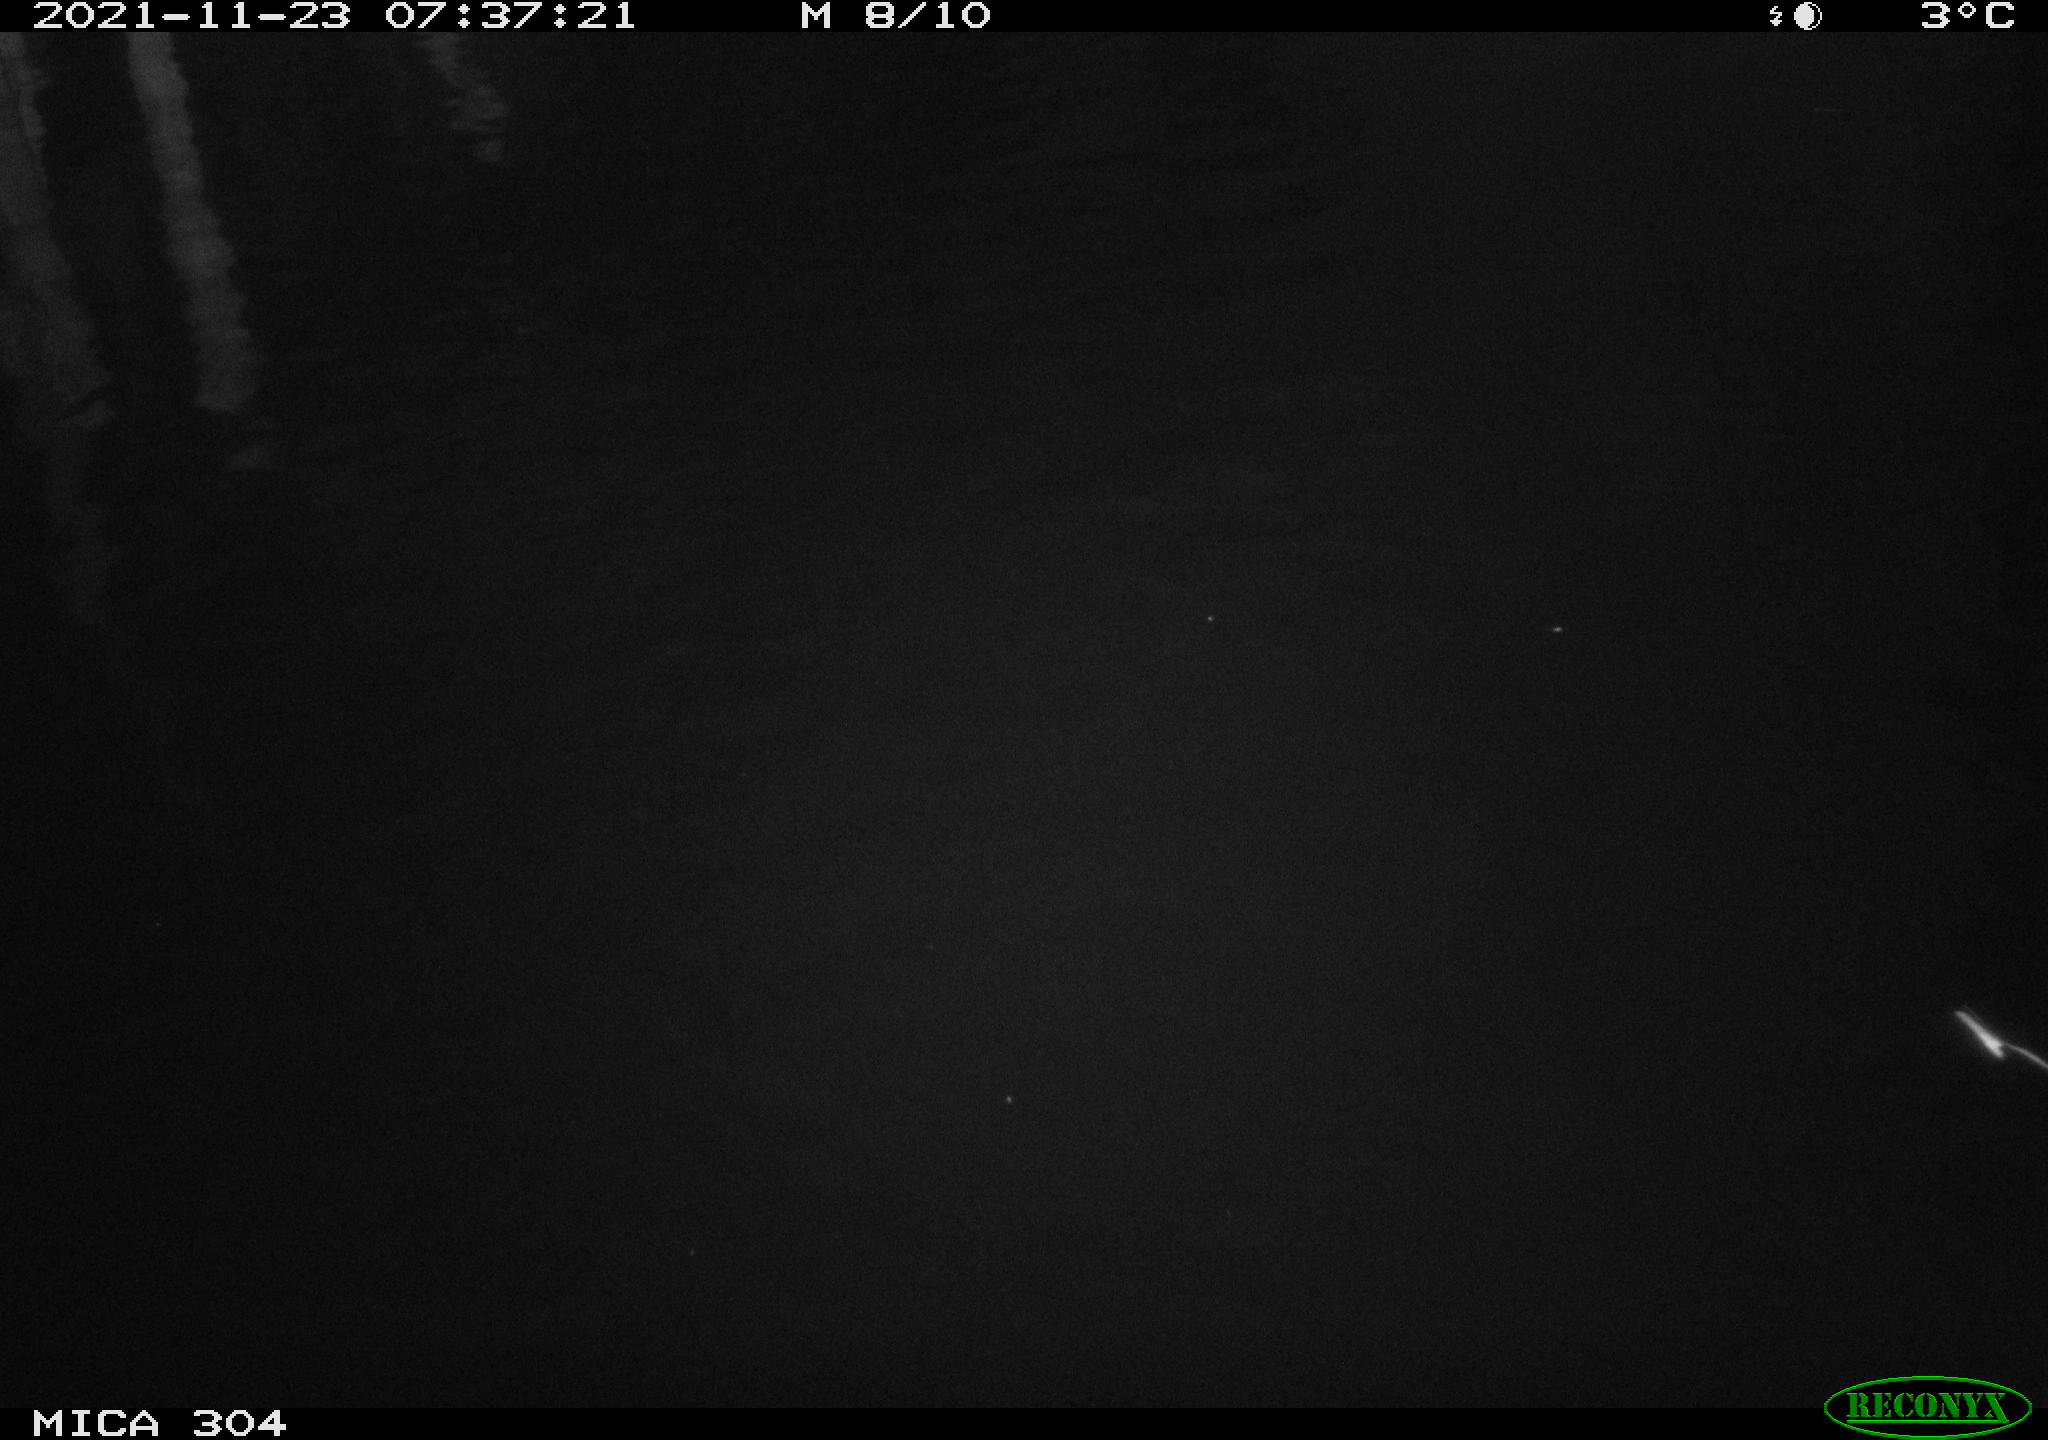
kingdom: Animalia
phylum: Chordata
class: Aves
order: Gruiformes
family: Rallidae
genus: Fulica
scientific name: Fulica atra
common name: Eurasian coot
